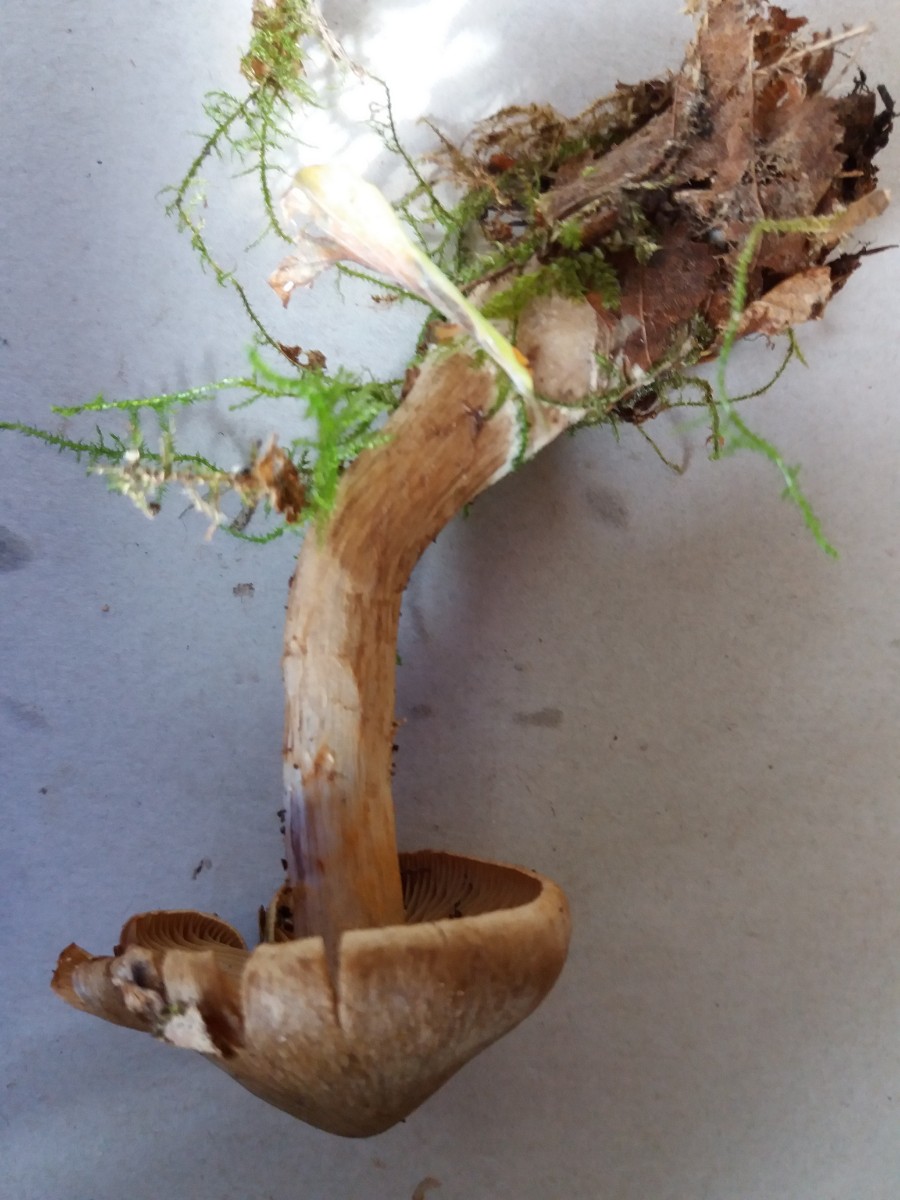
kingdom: Fungi
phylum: Basidiomycota
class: Agaricomycetes
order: Agaricales
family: Cortinariaceae
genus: Cortinarius
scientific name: Cortinarius raphanoides
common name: ræddike-slørhat
